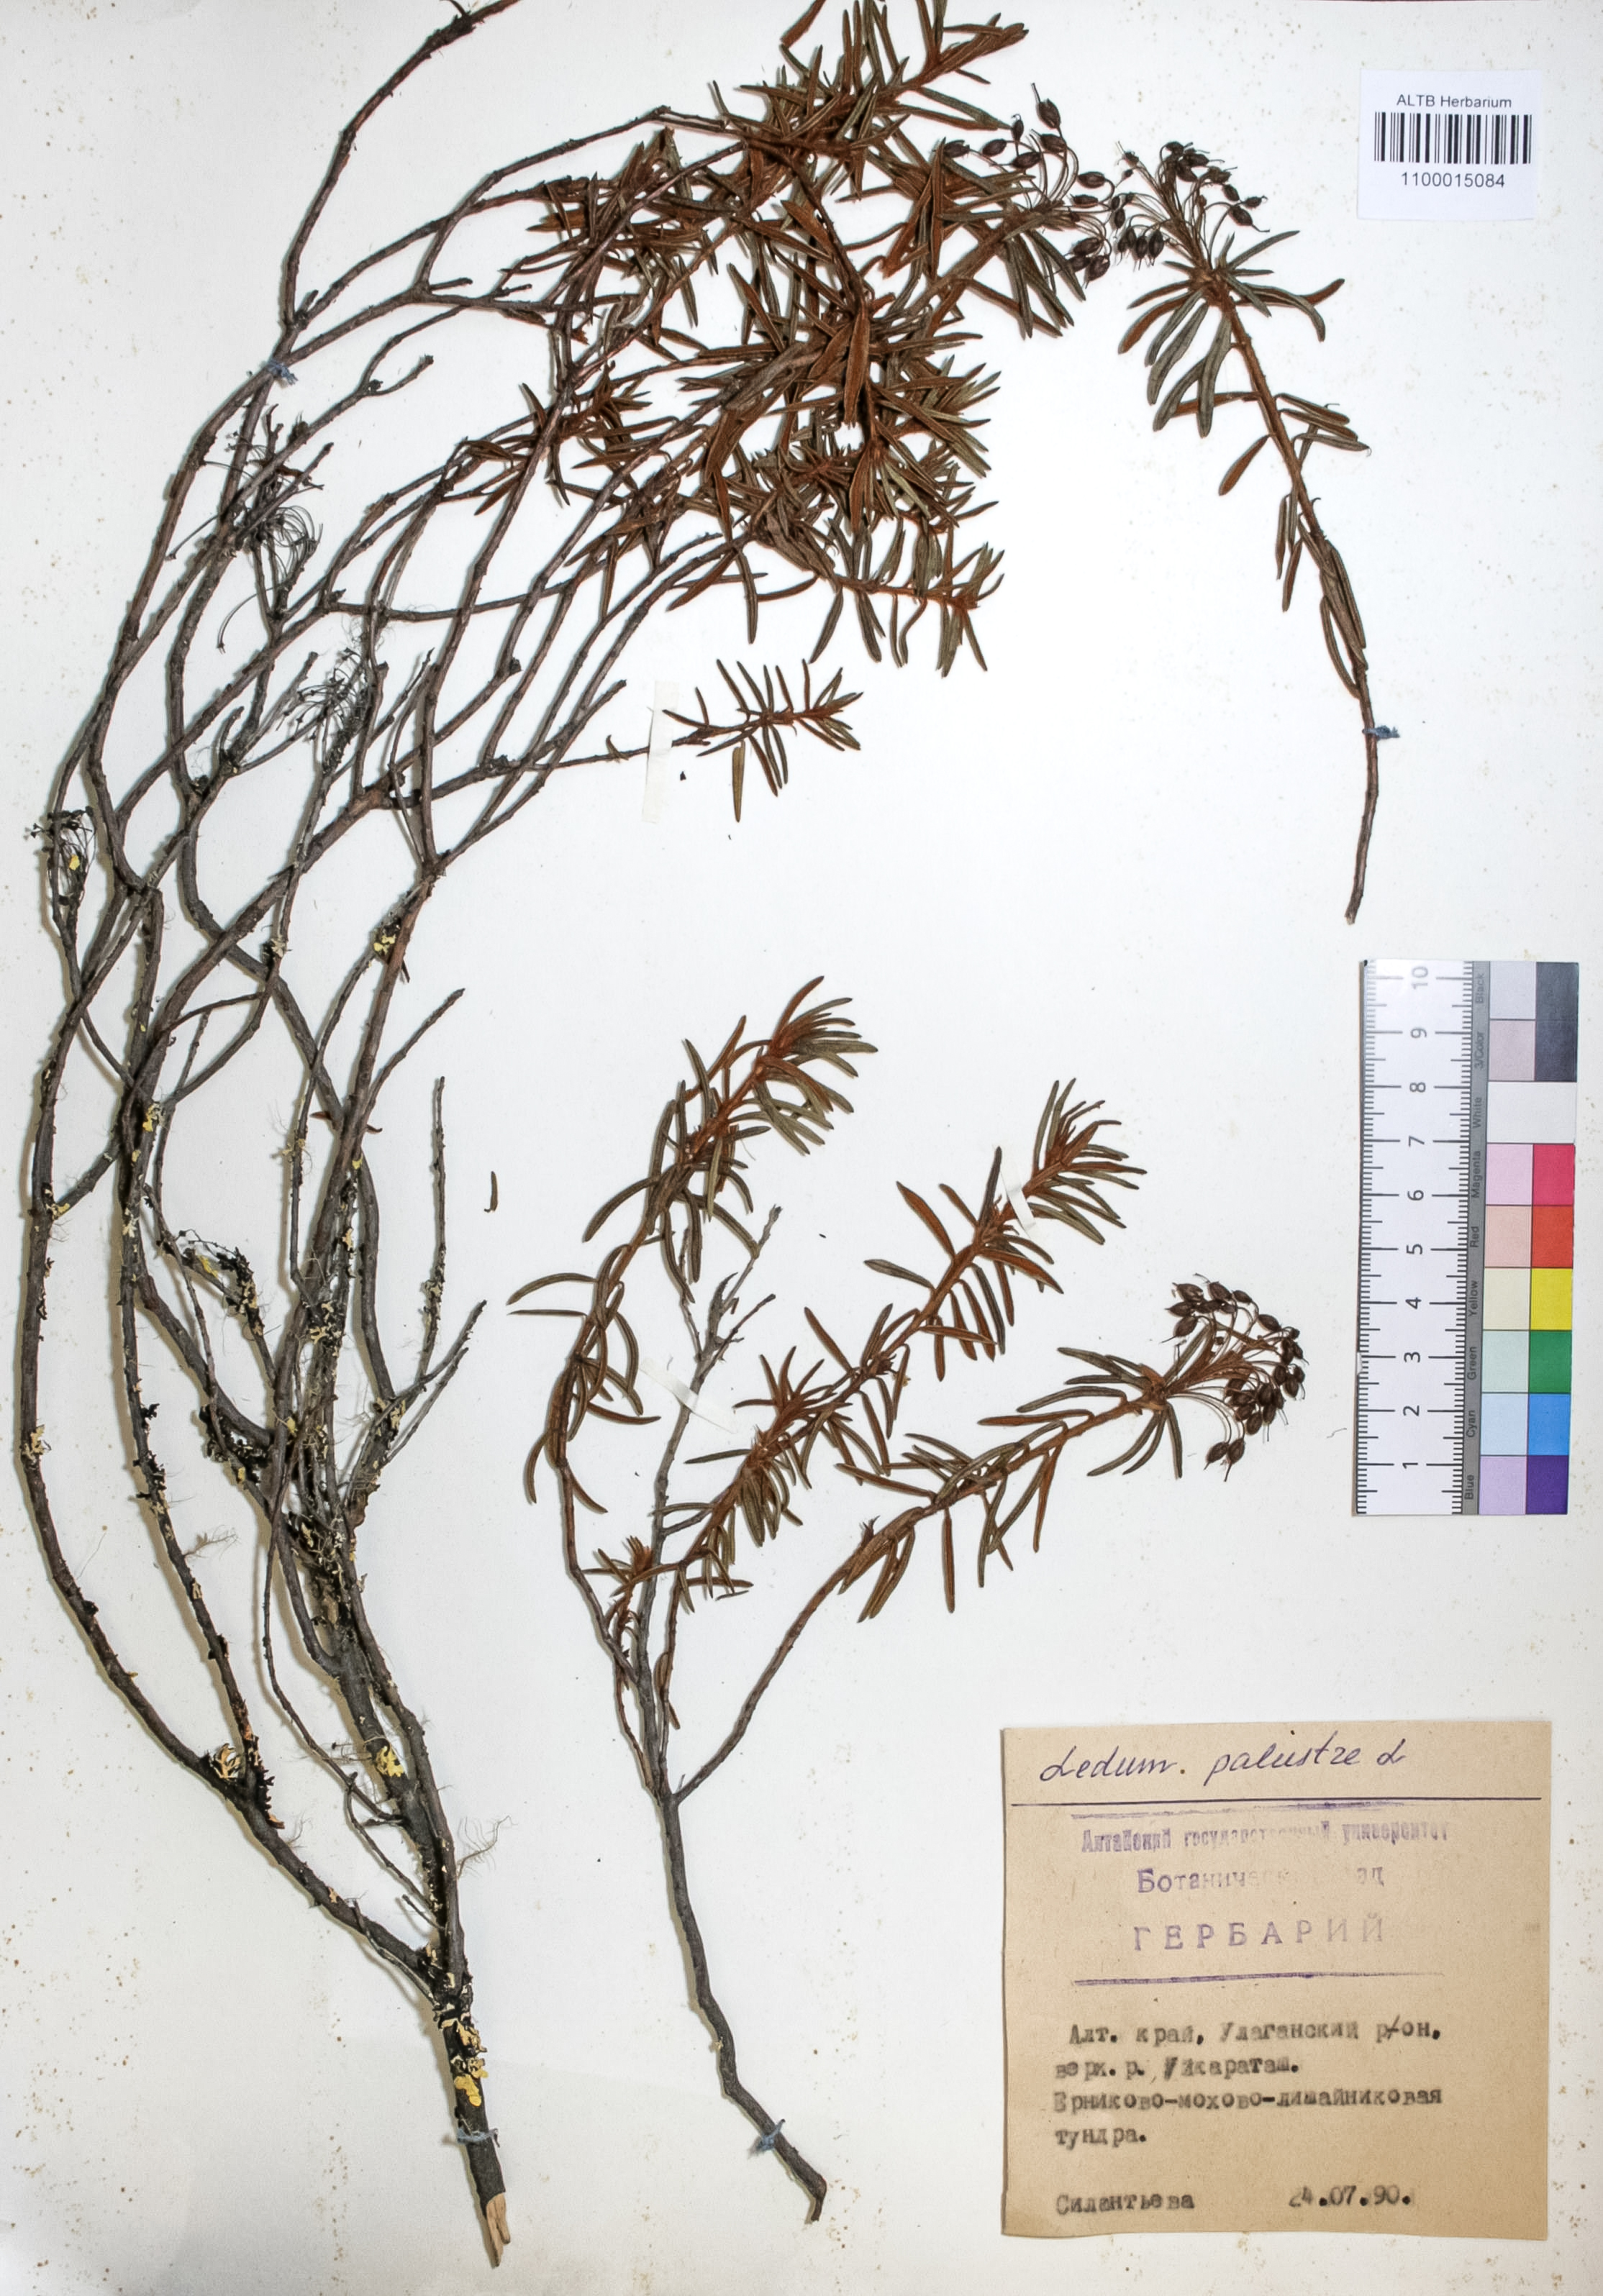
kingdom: Plantae
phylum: Tracheophyta
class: Magnoliopsida
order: Ericales
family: Ericaceae
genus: Rhododendron
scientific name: Rhododendron tomentosum
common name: Marsh labrador tea
